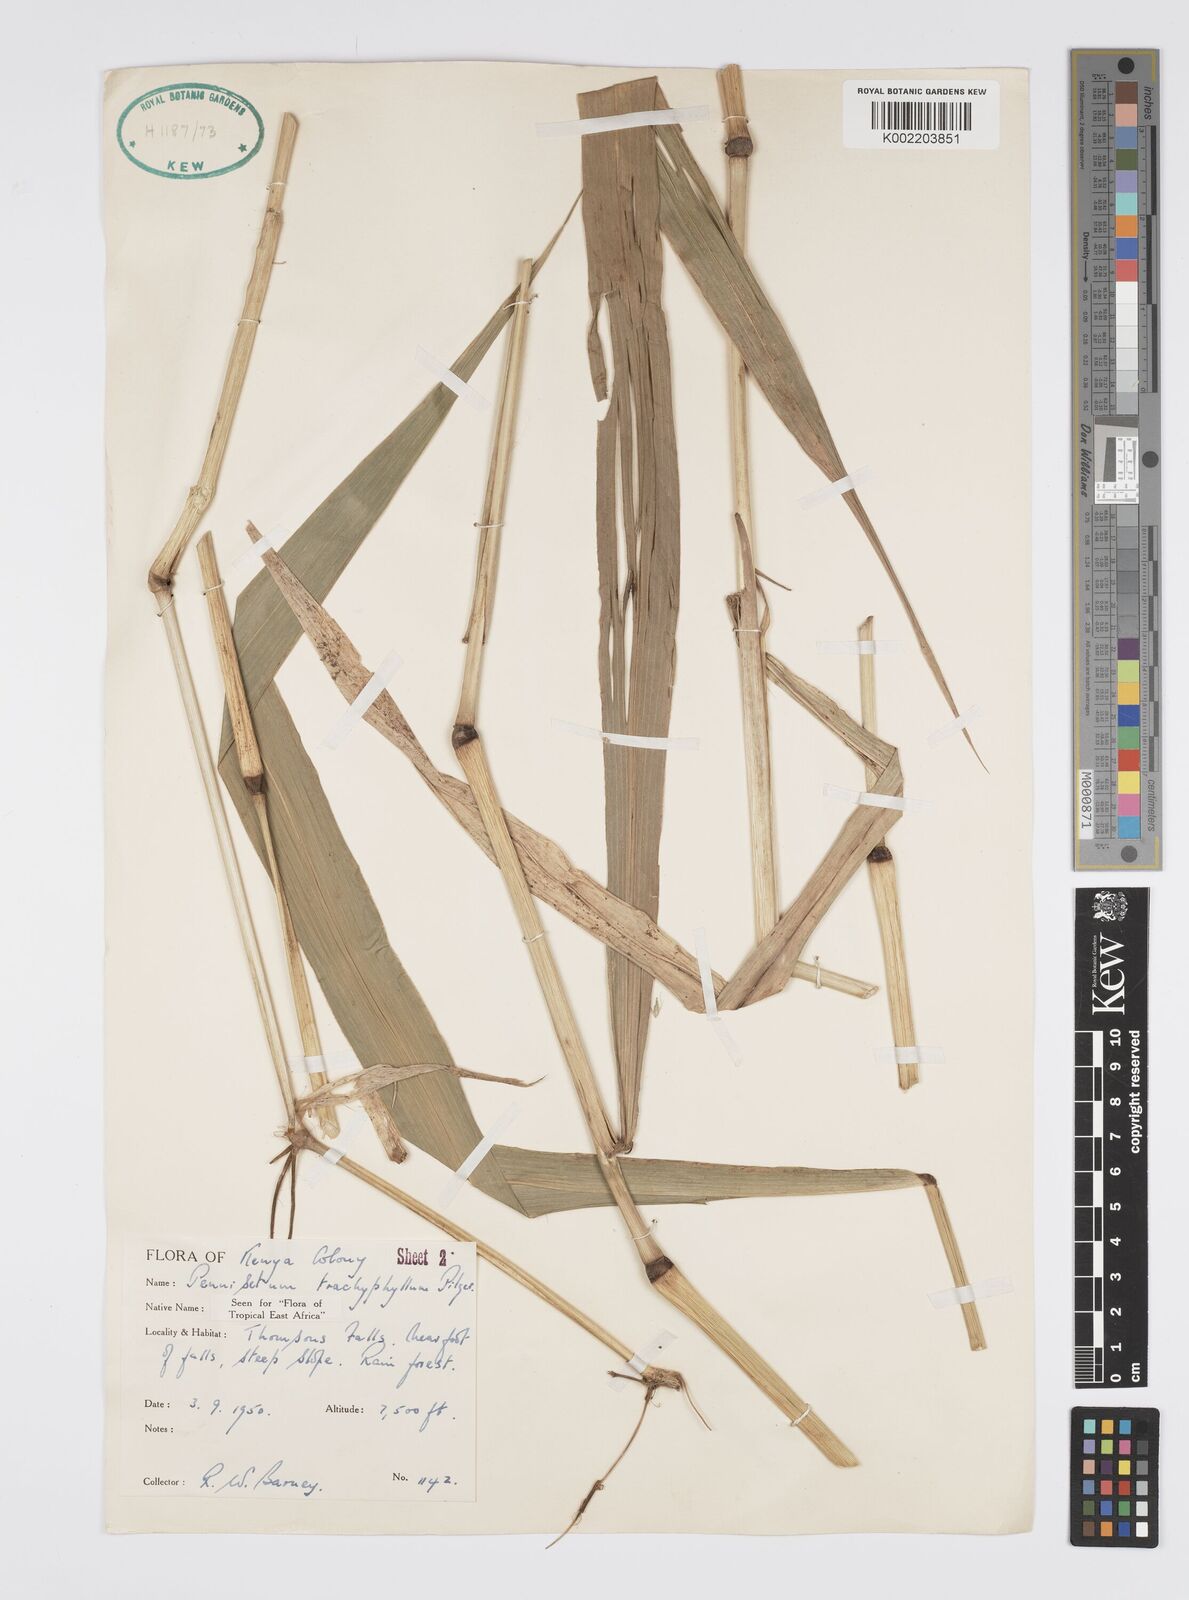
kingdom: Plantae
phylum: Tracheophyta
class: Liliopsida
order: Poales
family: Poaceae
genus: Cenchrus
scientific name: Cenchrus trachyphyllus
